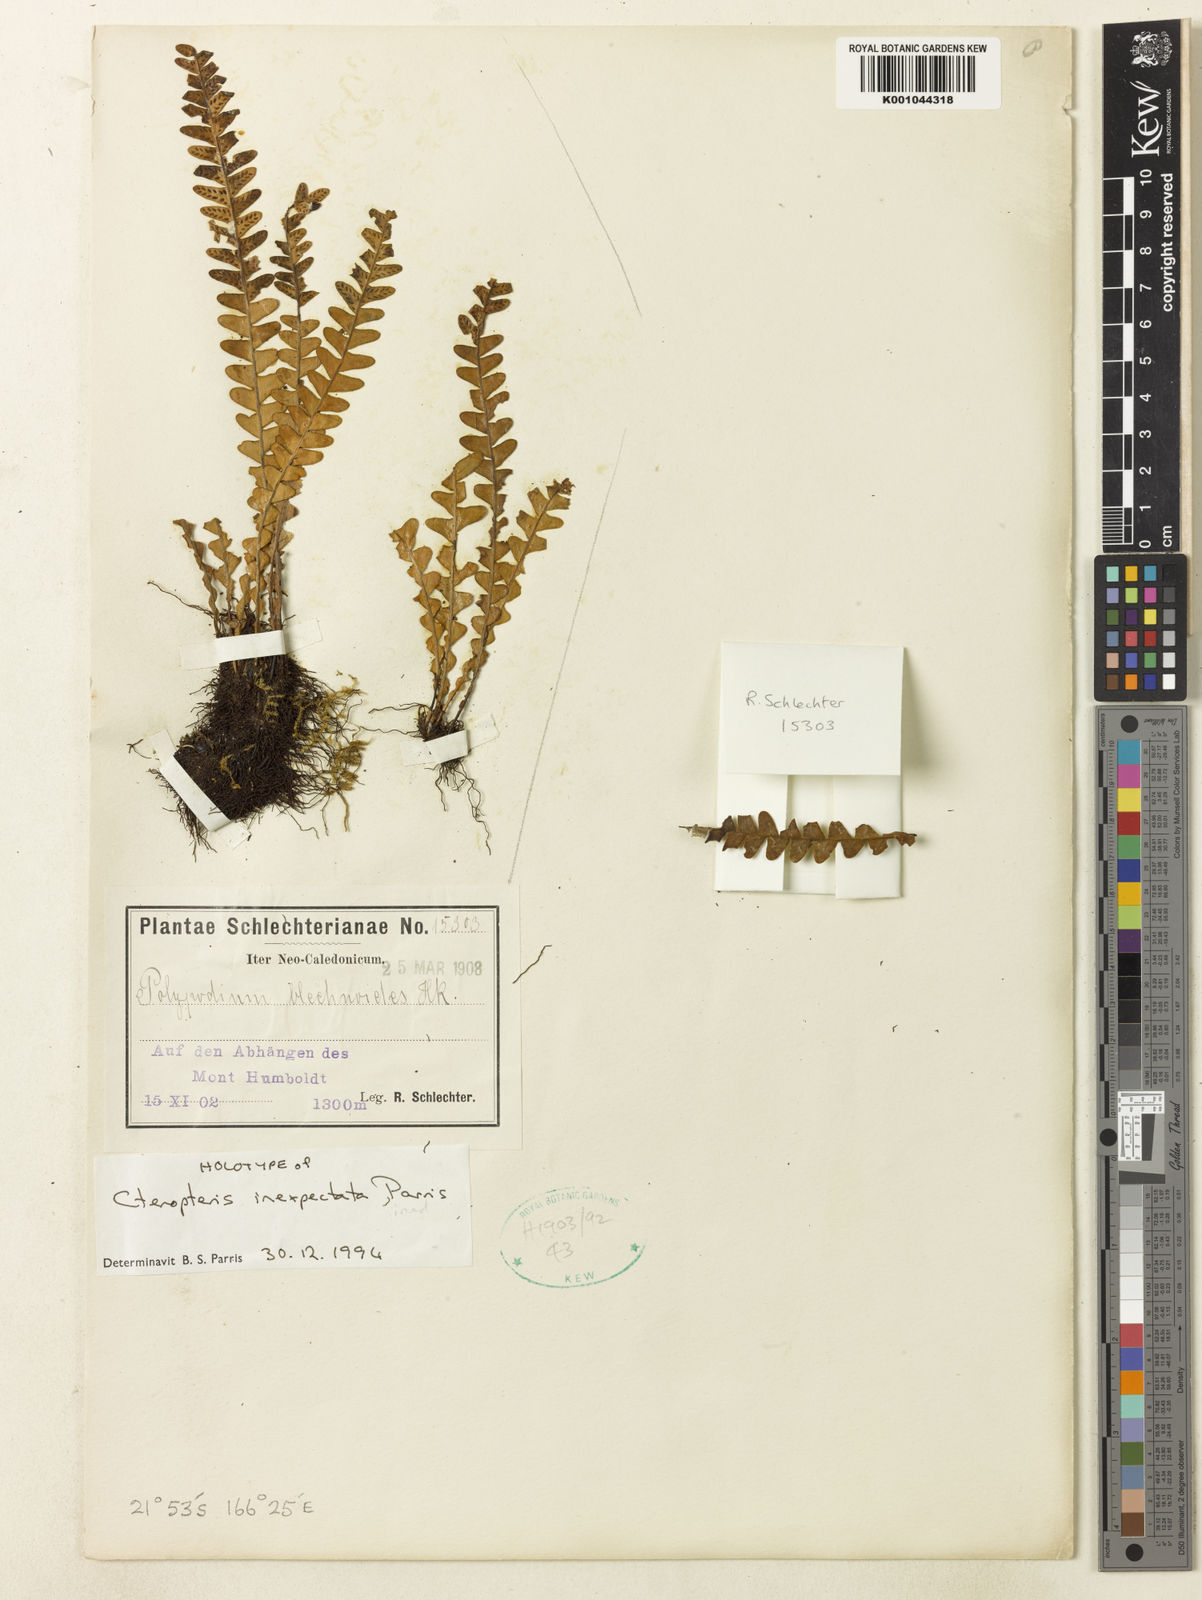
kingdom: Plantae
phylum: Tracheophyta
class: Polypodiopsida
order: Polypodiales
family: Polypodiaceae
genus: Grammitis
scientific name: Grammitis
